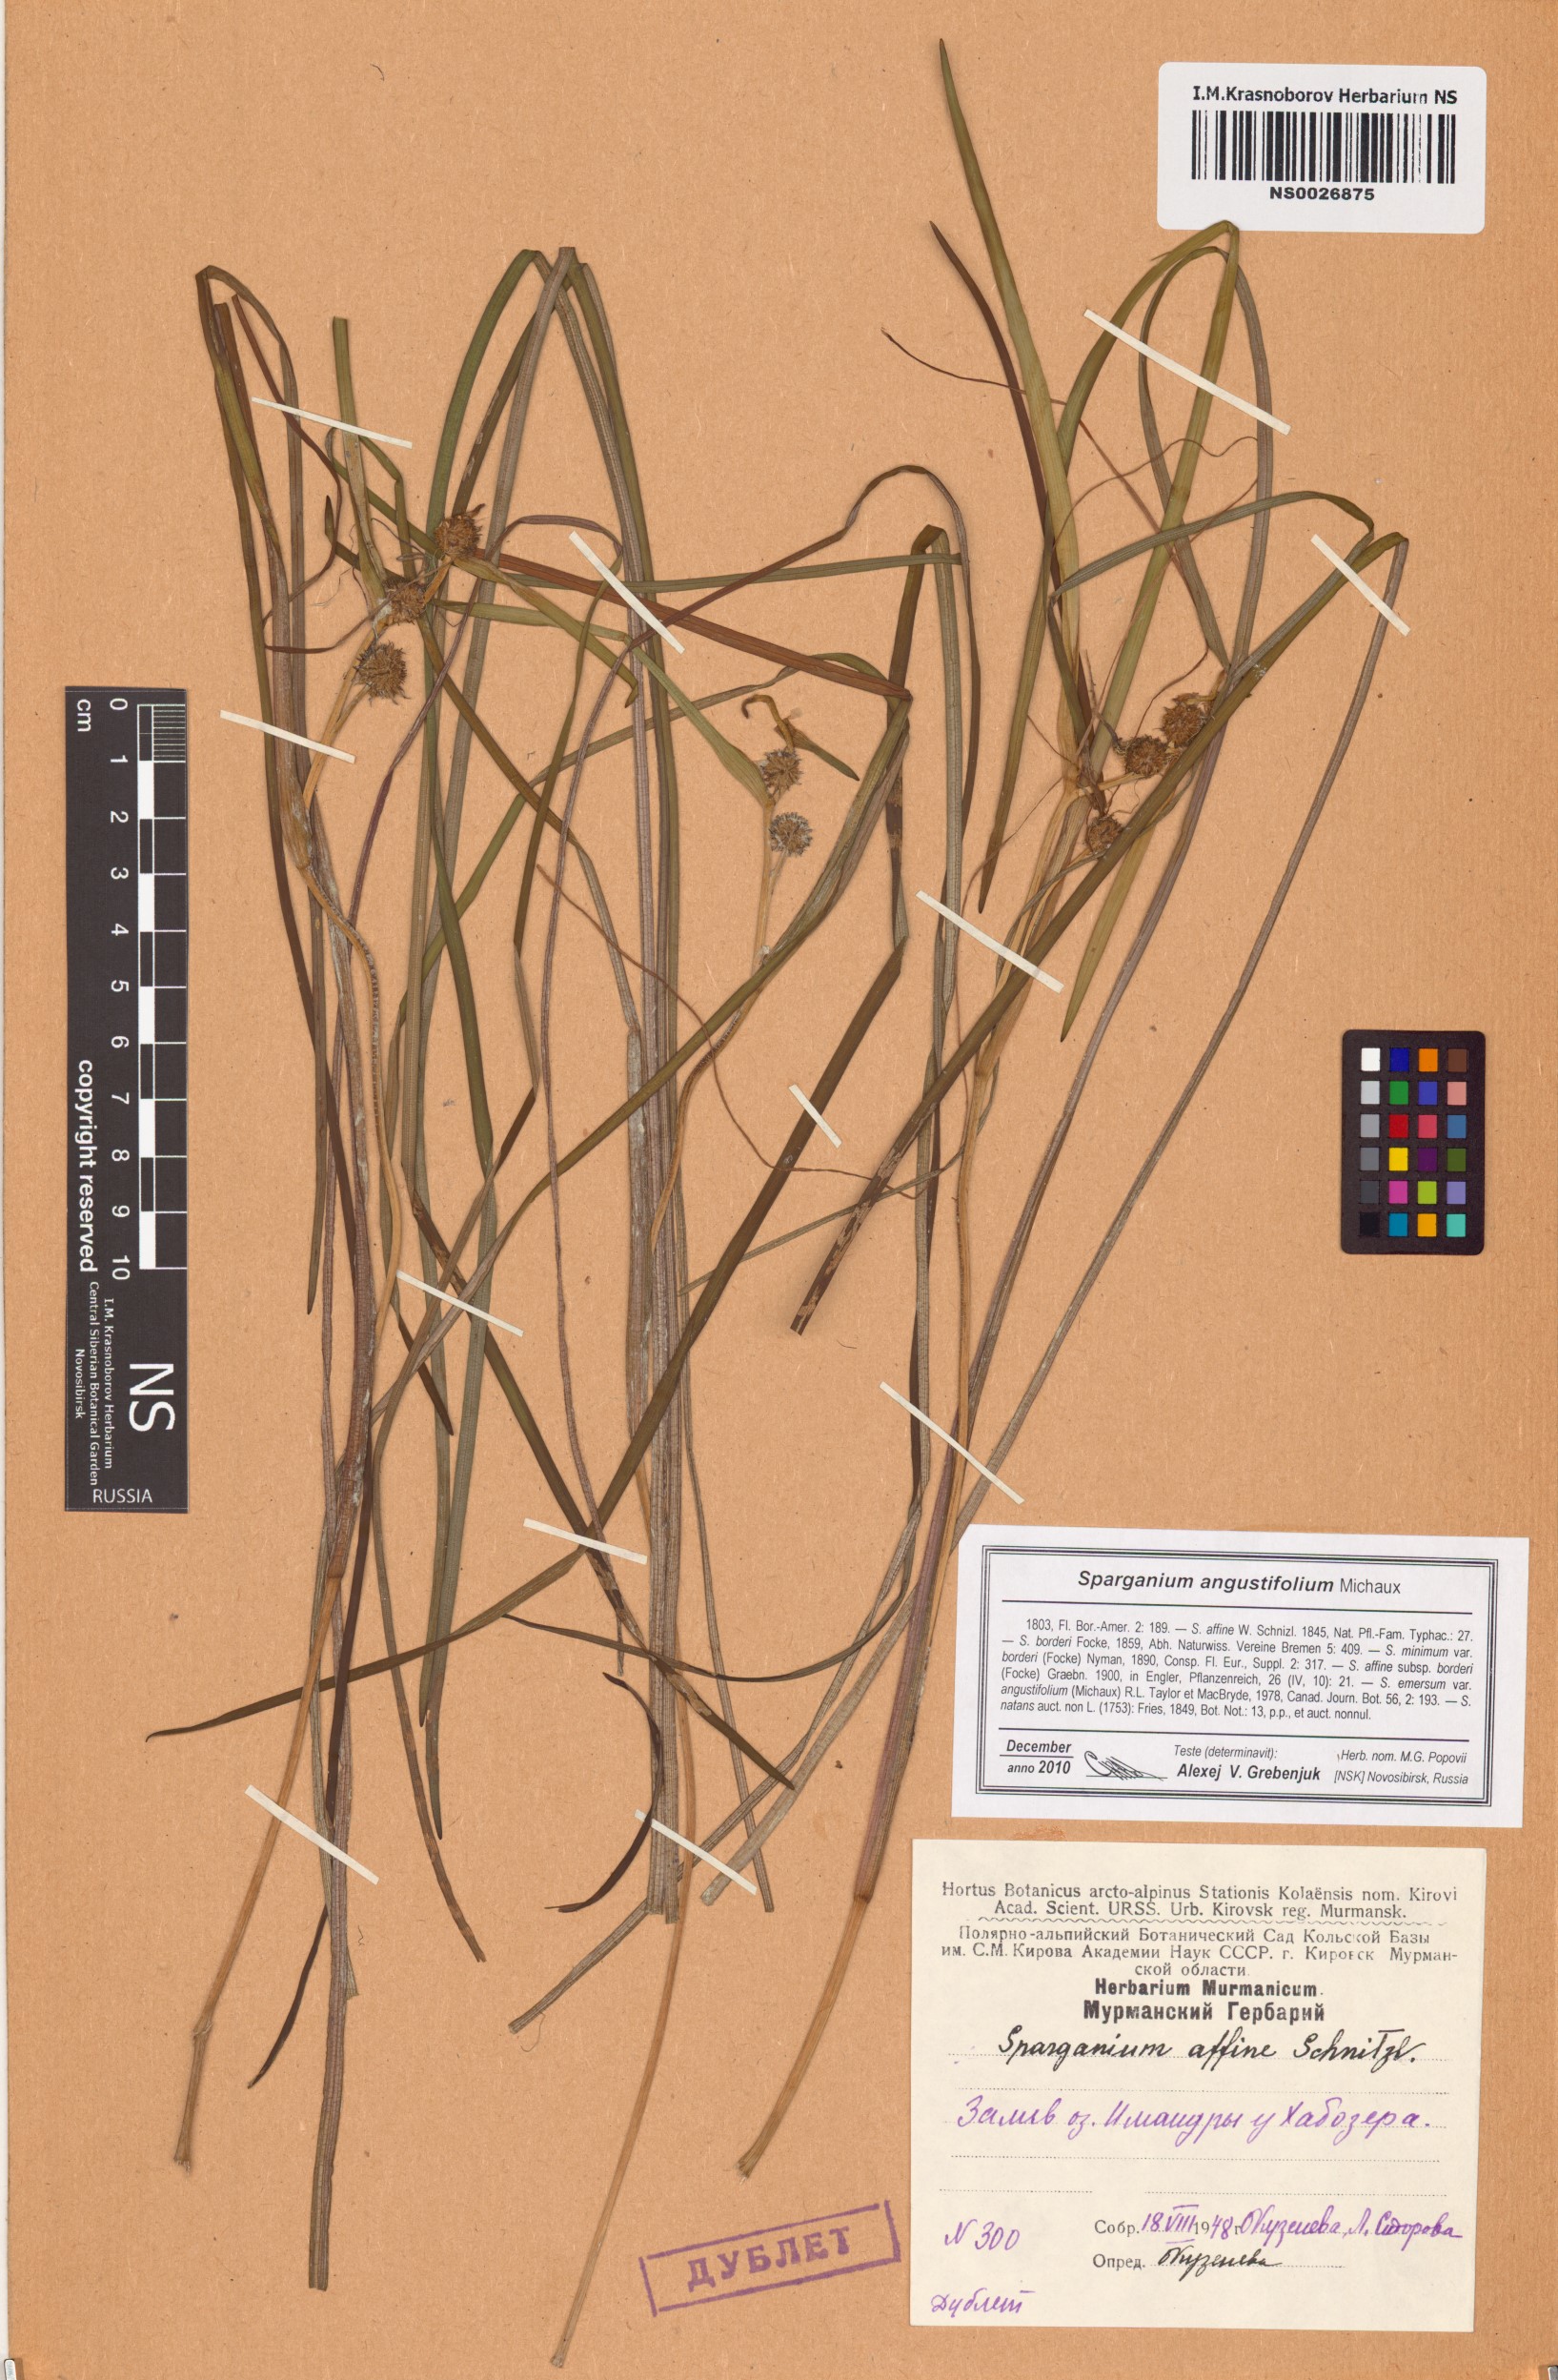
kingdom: Plantae
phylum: Tracheophyta
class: Liliopsida
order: Poales
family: Typhaceae
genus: Sparganium
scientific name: Sparganium angustifolium
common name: Floating bur-reed
